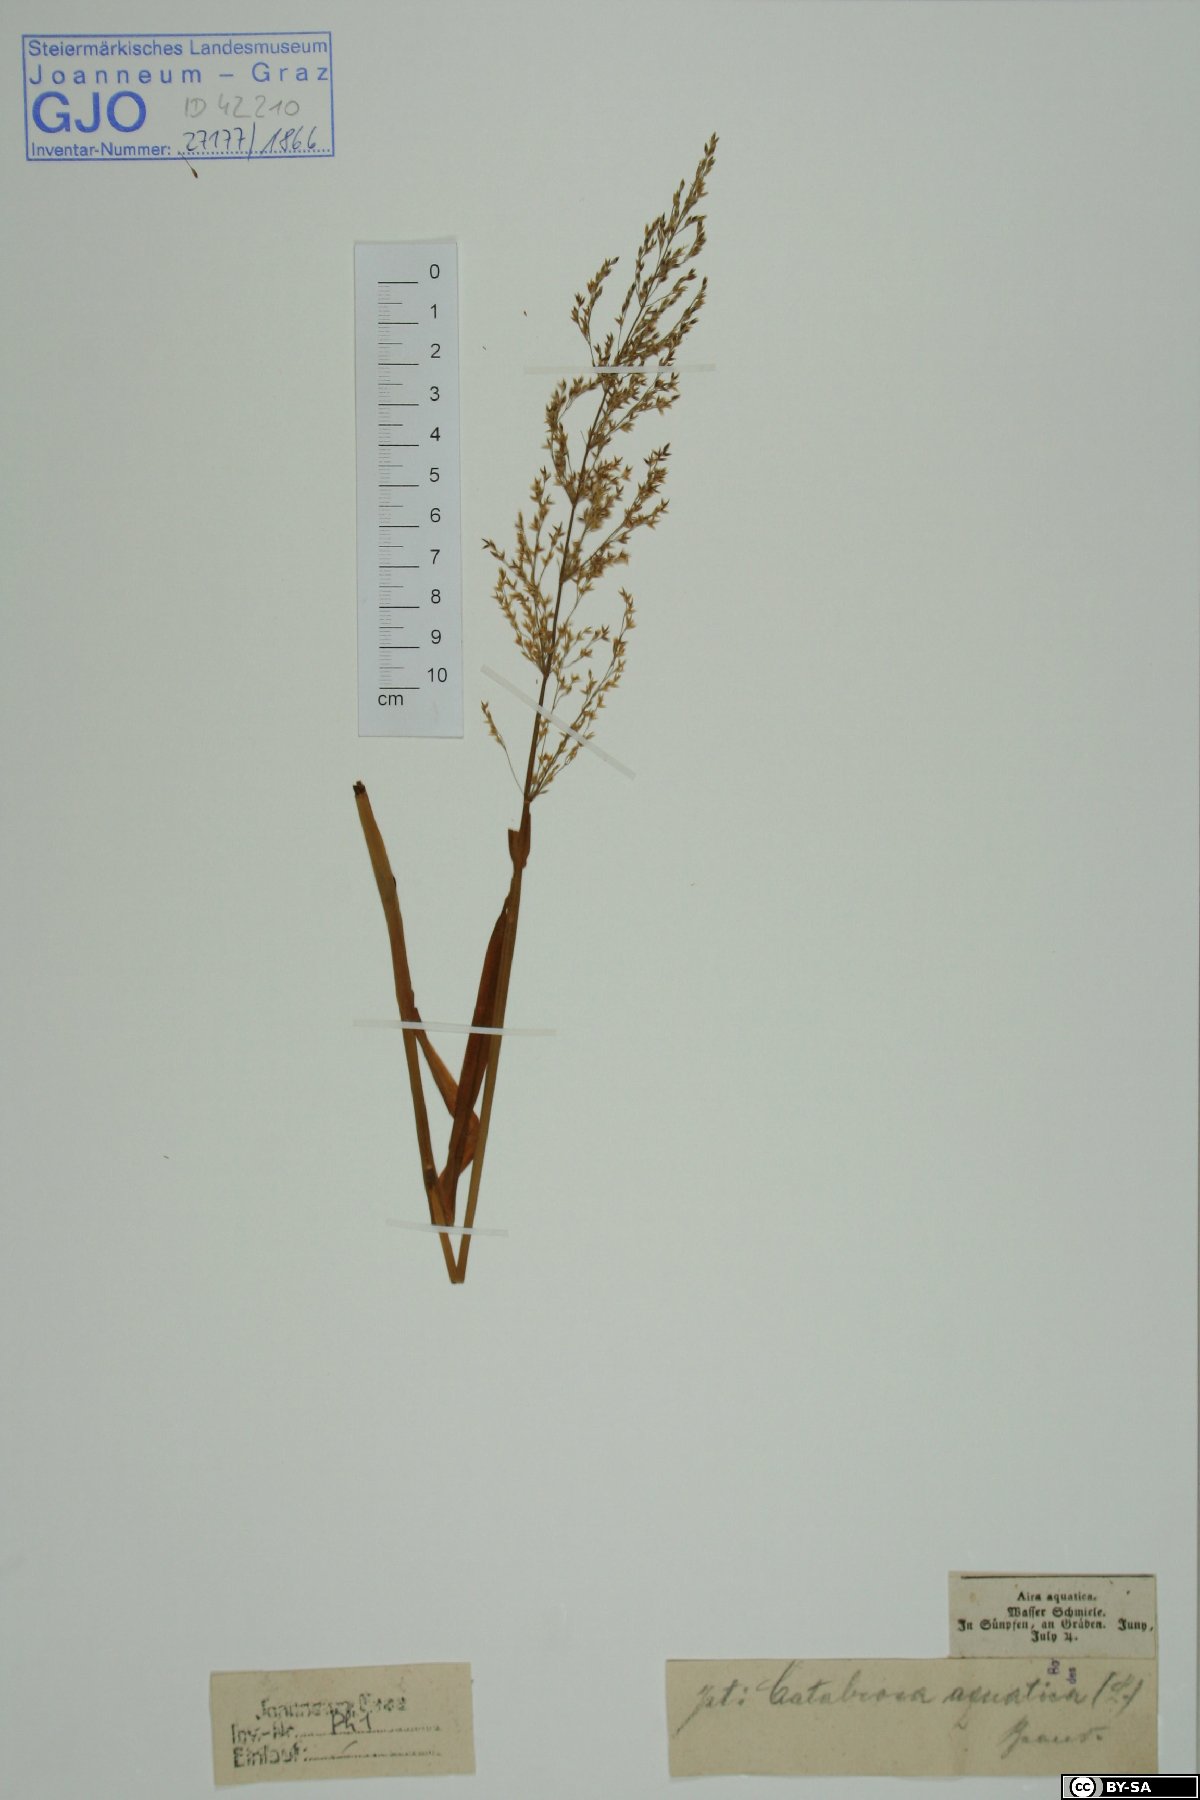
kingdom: Plantae
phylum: Tracheophyta
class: Liliopsida
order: Poales
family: Poaceae
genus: Catabrosa
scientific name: Catabrosa aquatica
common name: Whorl-grass
